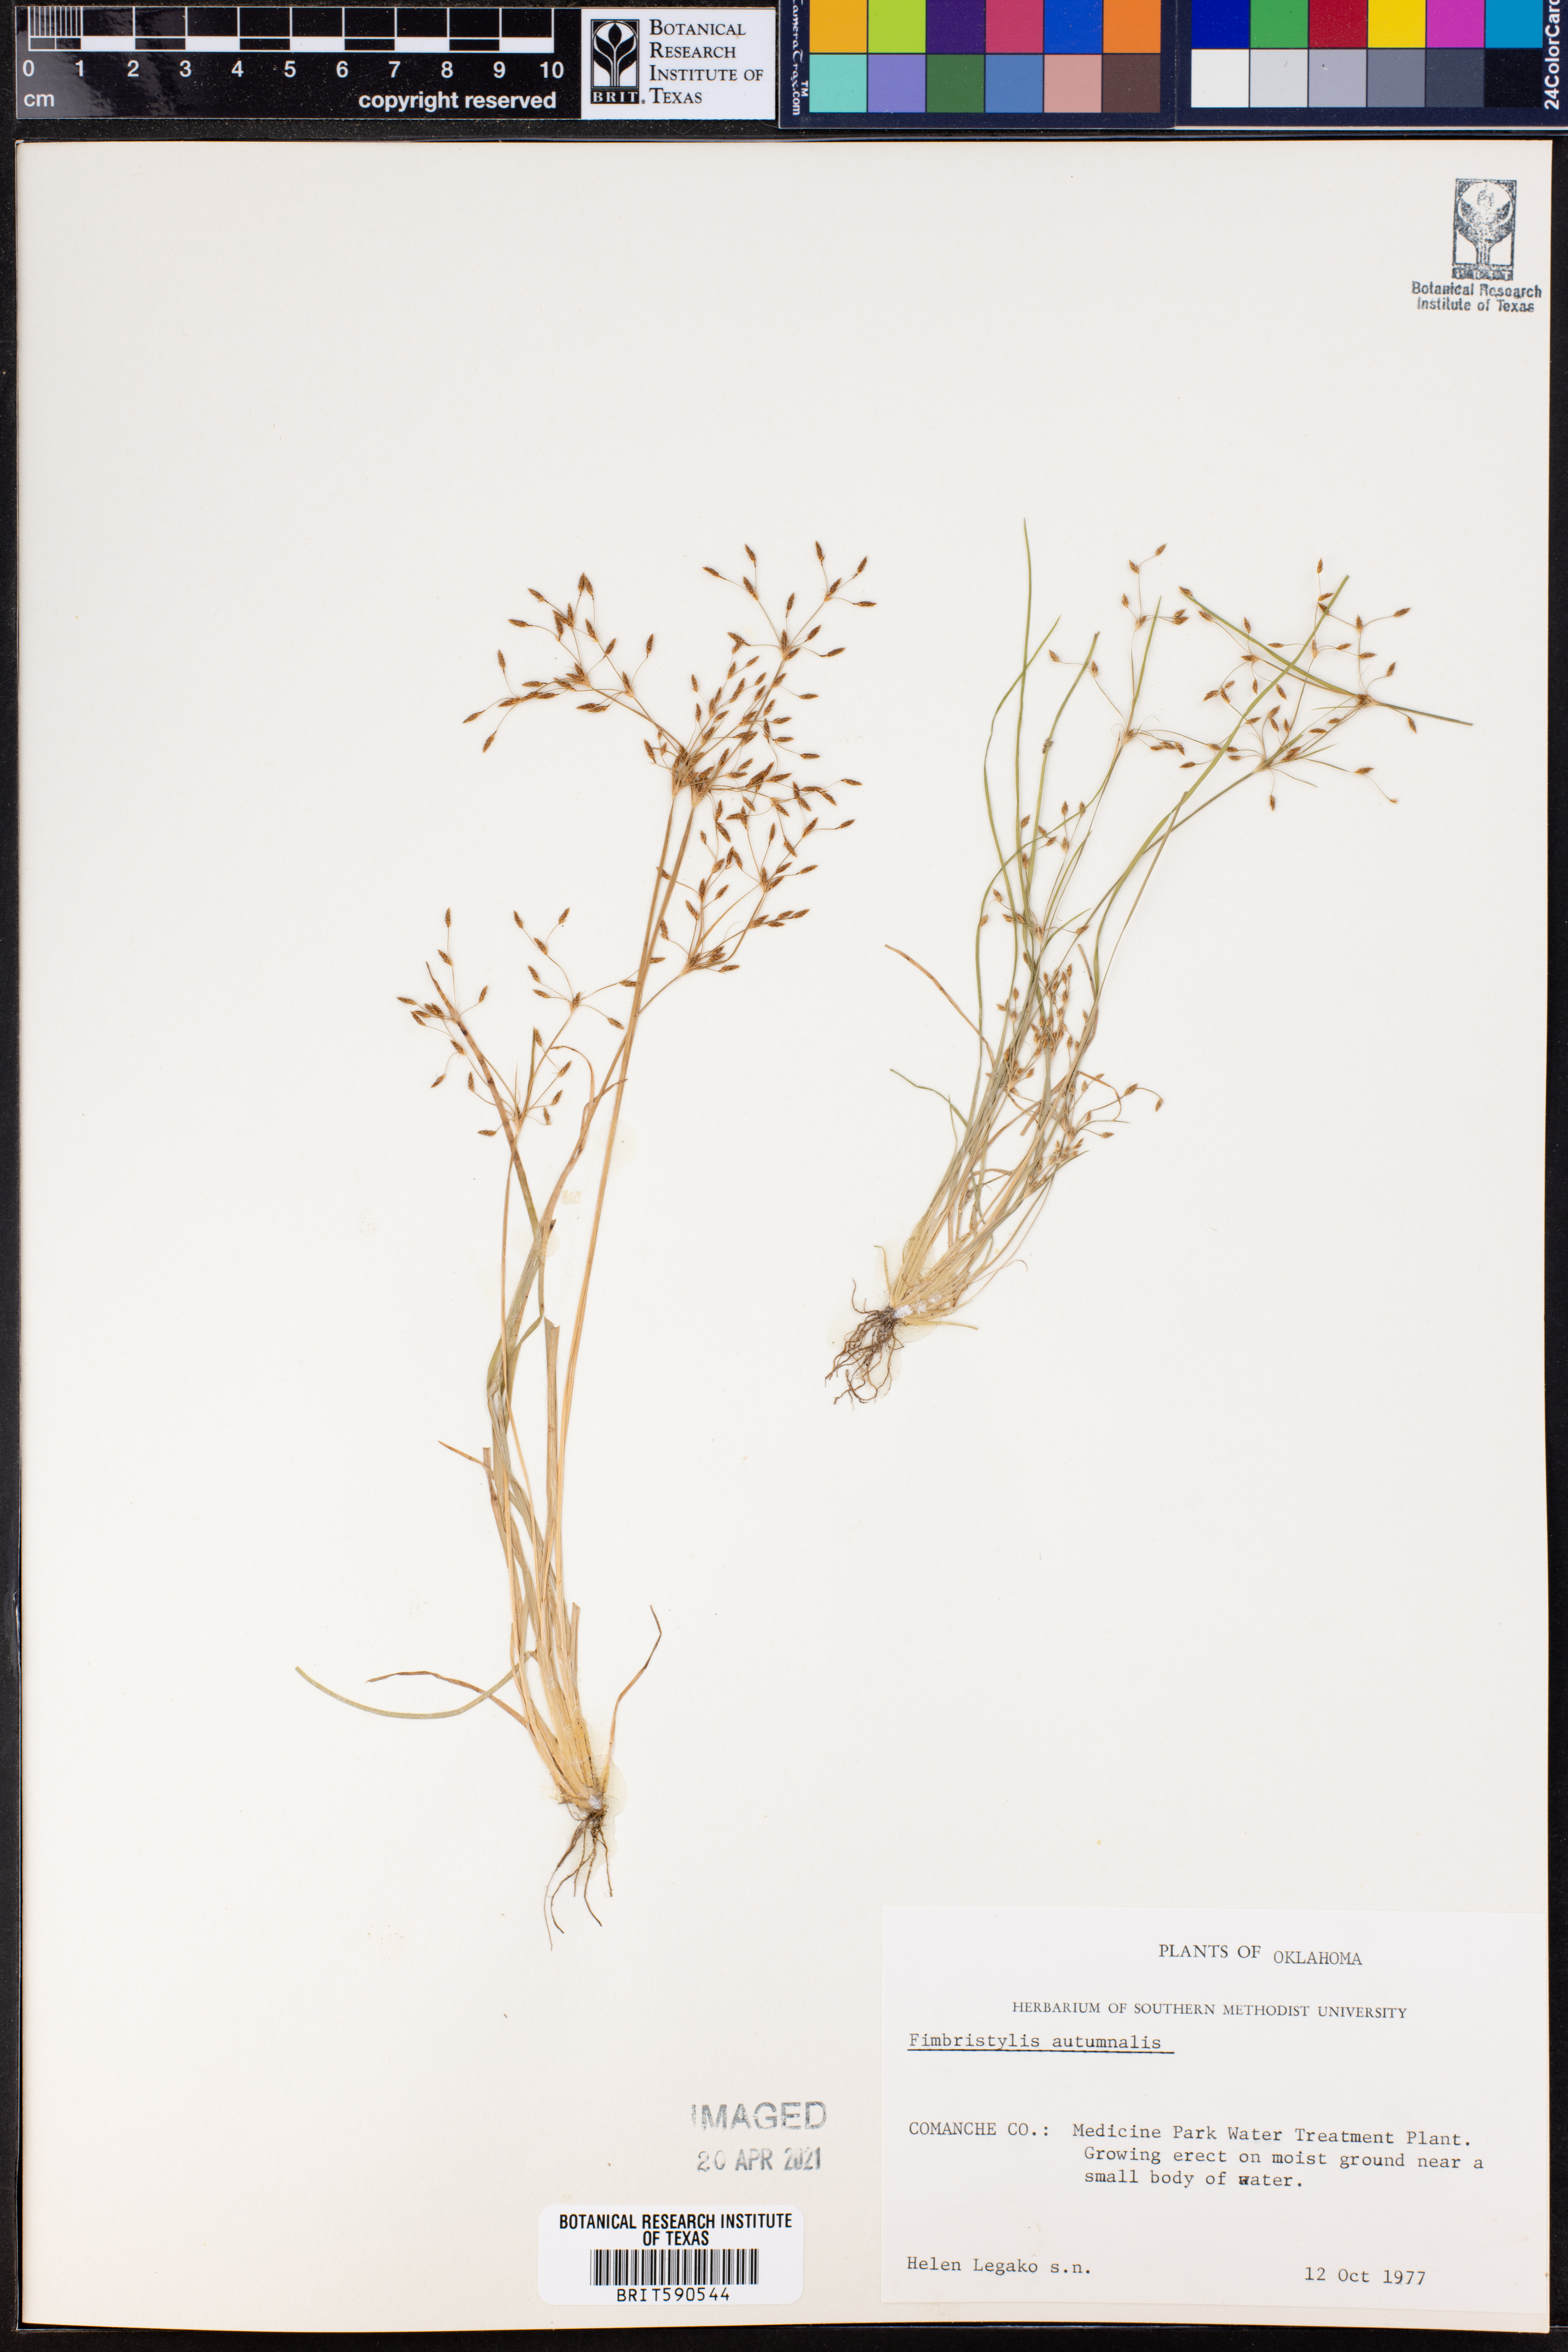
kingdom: Plantae
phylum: Tracheophyta
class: Liliopsida
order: Poales
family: Cyperaceae
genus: Fimbristylis
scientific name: Fimbristylis autumnalis
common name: Slender fimbristylis
